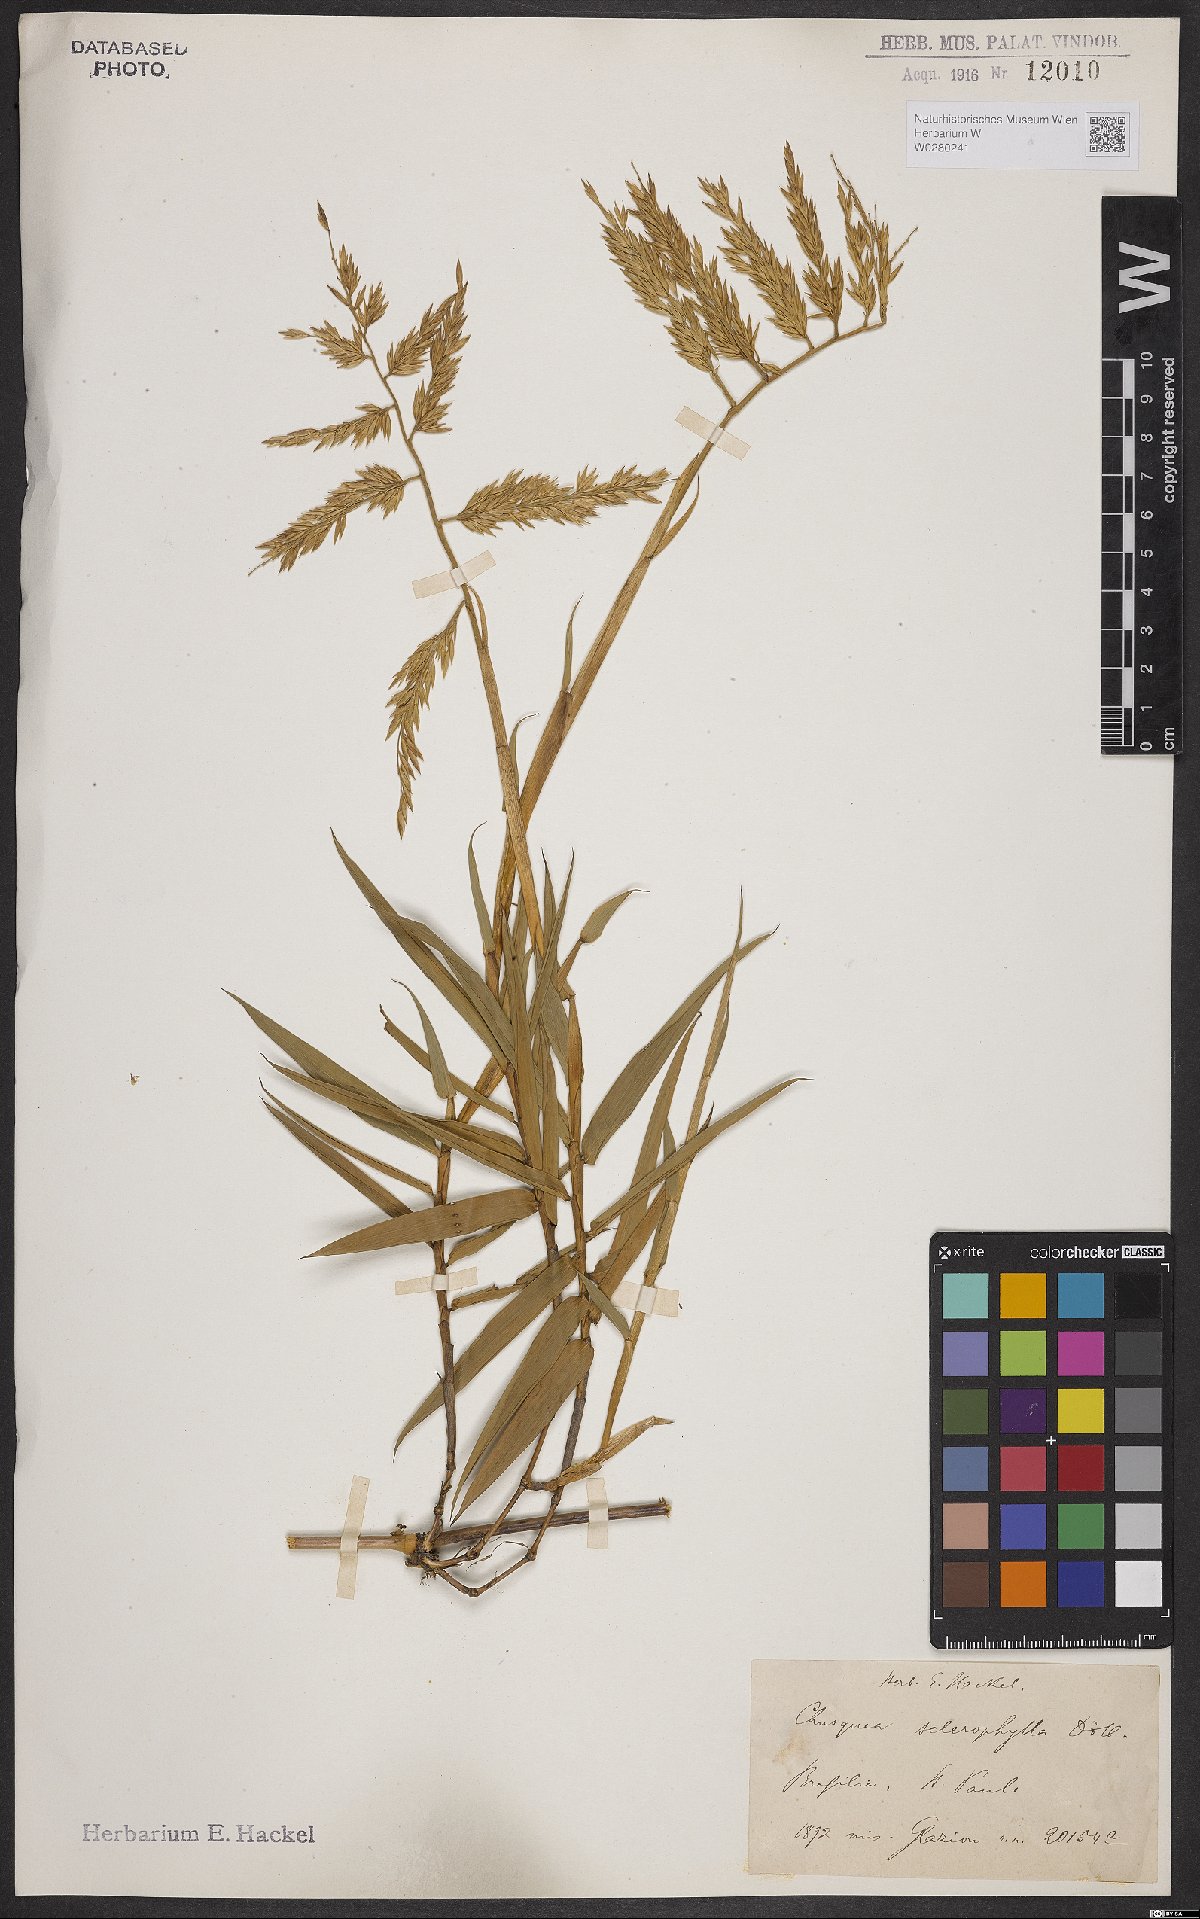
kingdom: Plantae
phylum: Tracheophyta
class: Liliopsida
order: Poales
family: Poaceae
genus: Chusquea
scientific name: Chusquea sclerophylla
